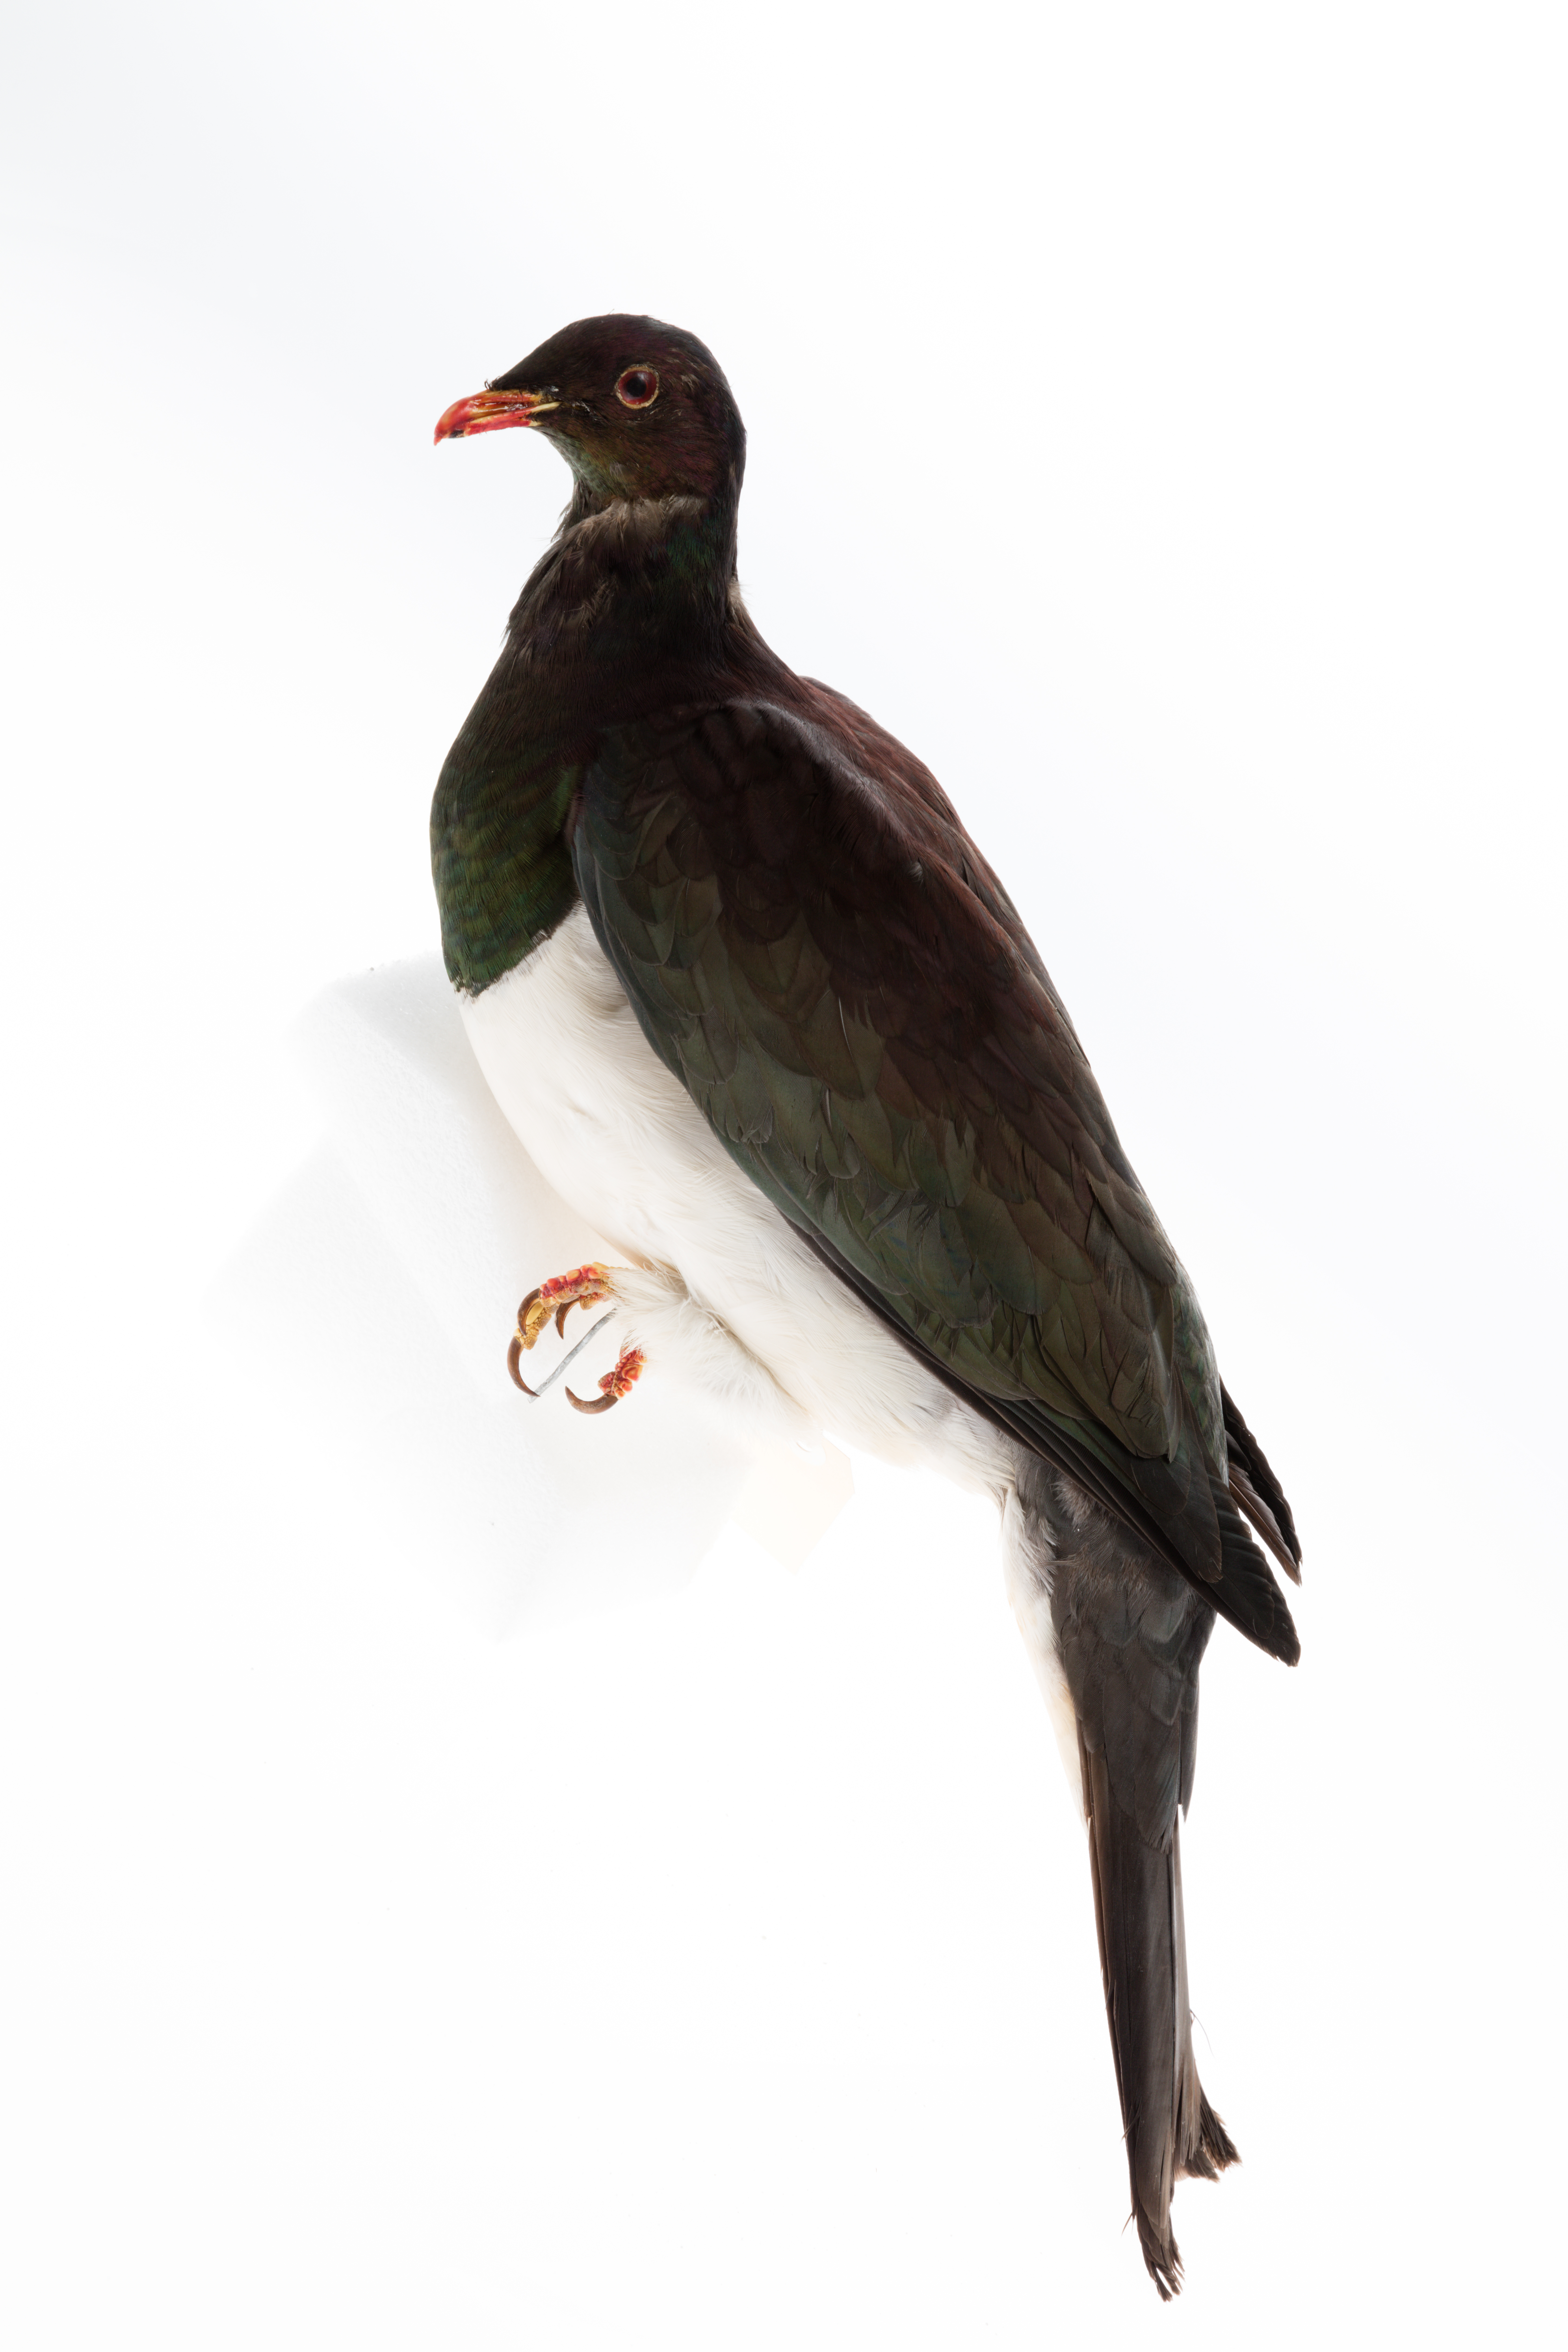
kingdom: Animalia
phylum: Chordata
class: Aves
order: Columbiformes
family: Columbidae
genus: Hemiphaga
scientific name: Hemiphaga novaeseelandiae
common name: New zealand pigeon
